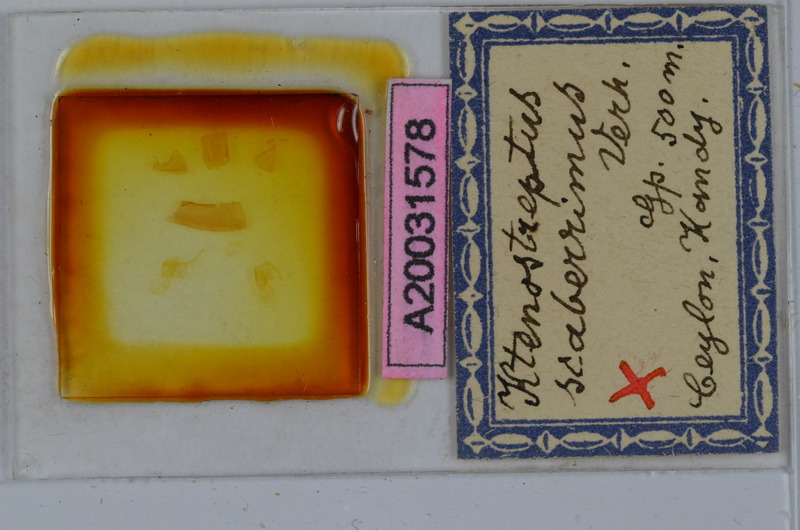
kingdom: Animalia
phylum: Arthropoda
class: Diplopoda
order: Spirostreptida
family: Harpagophoridae
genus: Ktenostreptus
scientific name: Ktenostreptus costulatus
